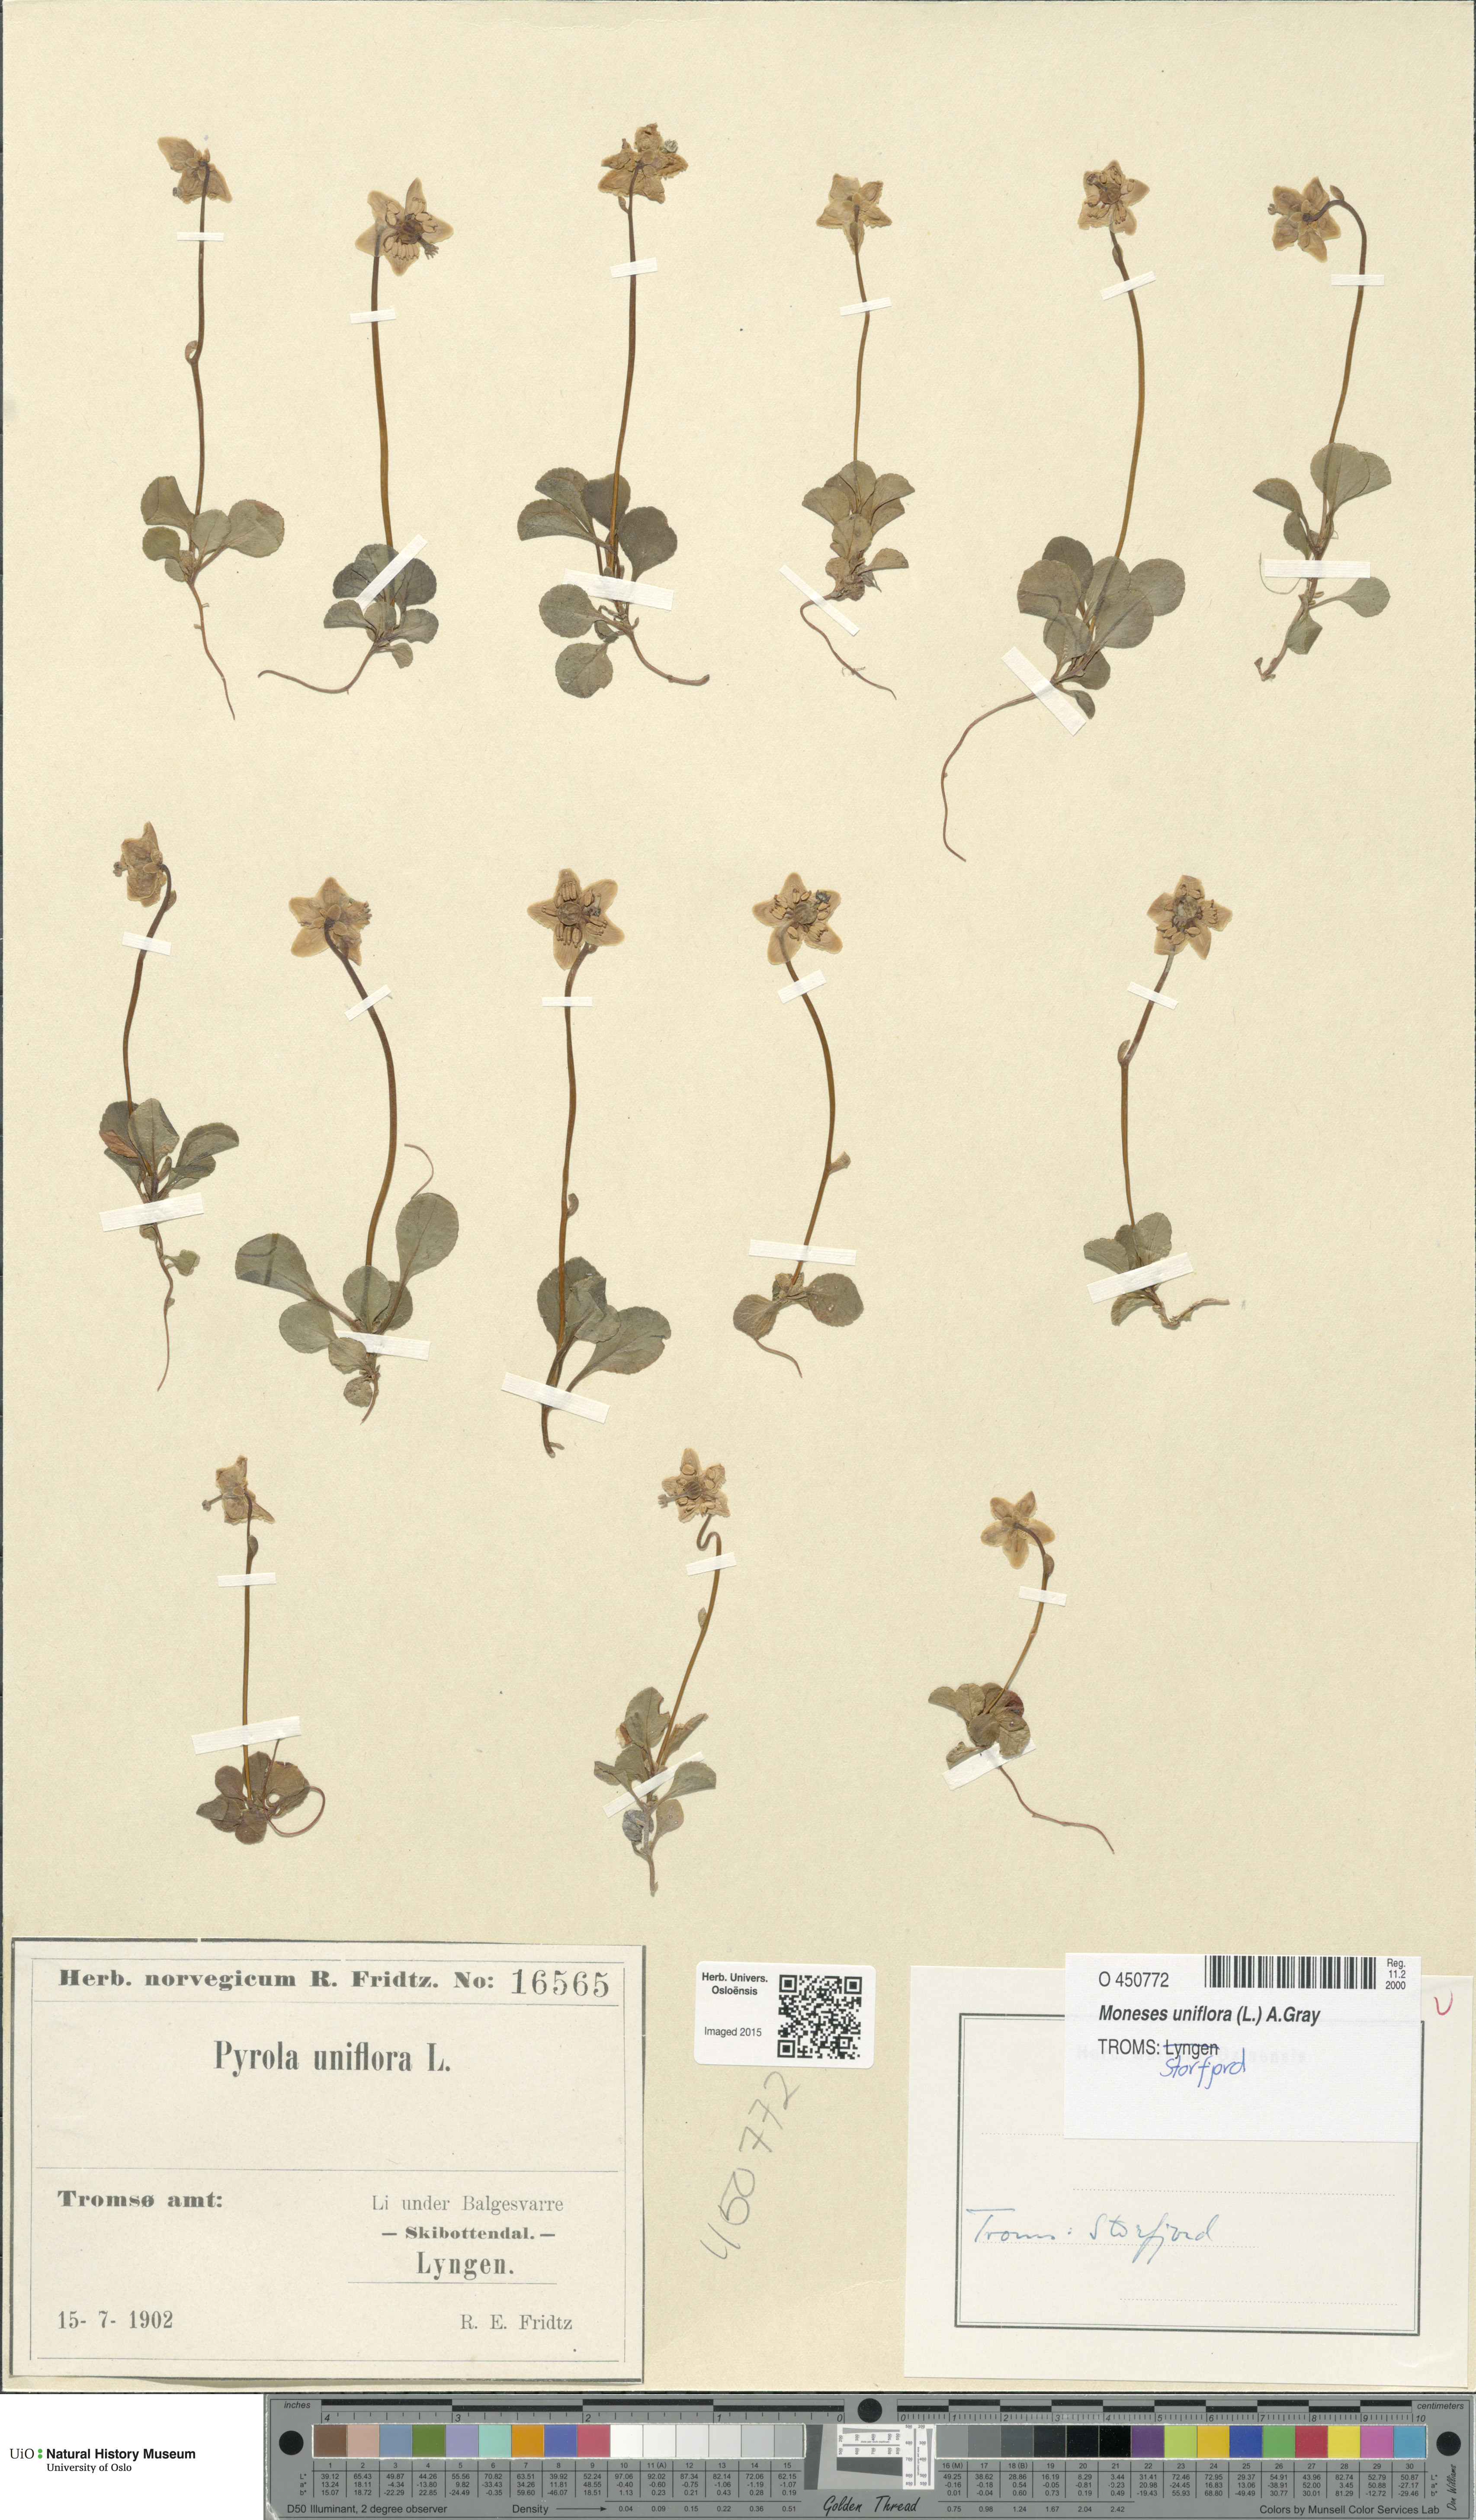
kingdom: Plantae
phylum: Tracheophyta
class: Magnoliopsida
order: Ericales
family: Ericaceae
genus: Moneses
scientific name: Moneses uniflora
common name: One-flowered wintergreen
